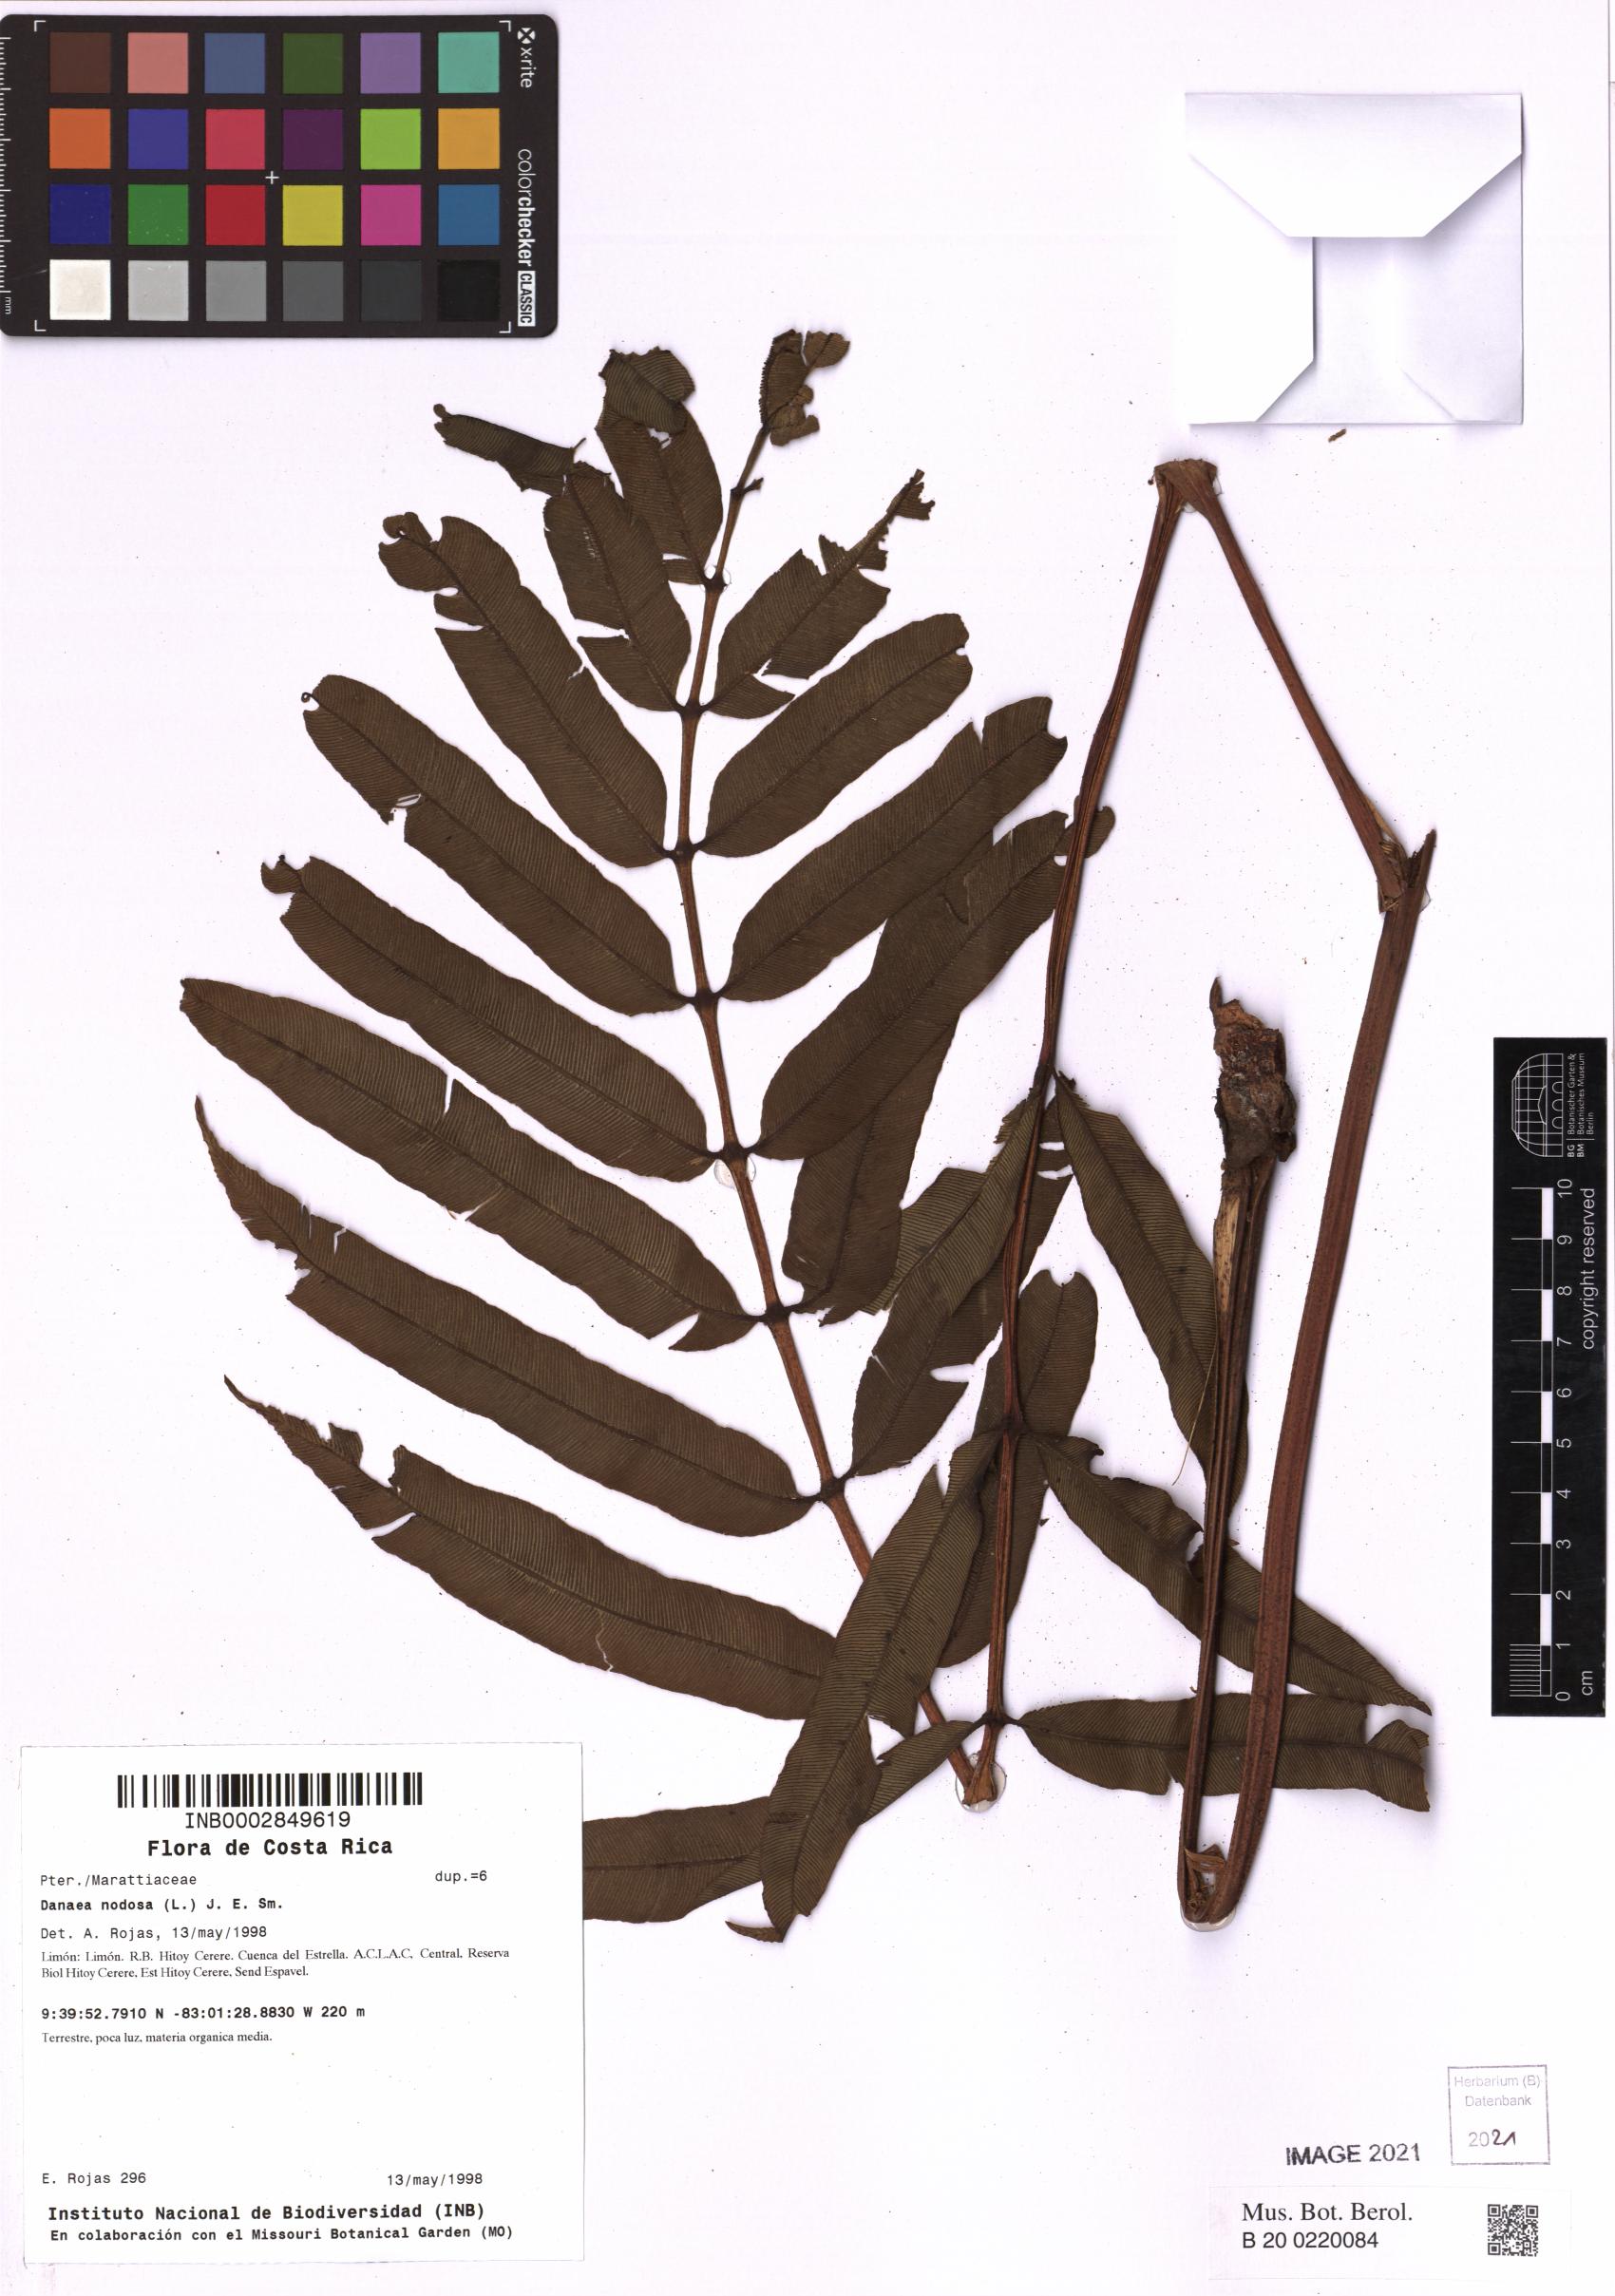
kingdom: Plantae
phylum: Tracheophyta
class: Polypodiopsida
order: Marattiales
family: Marattiaceae
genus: Danaea
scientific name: Danaea nodosa
